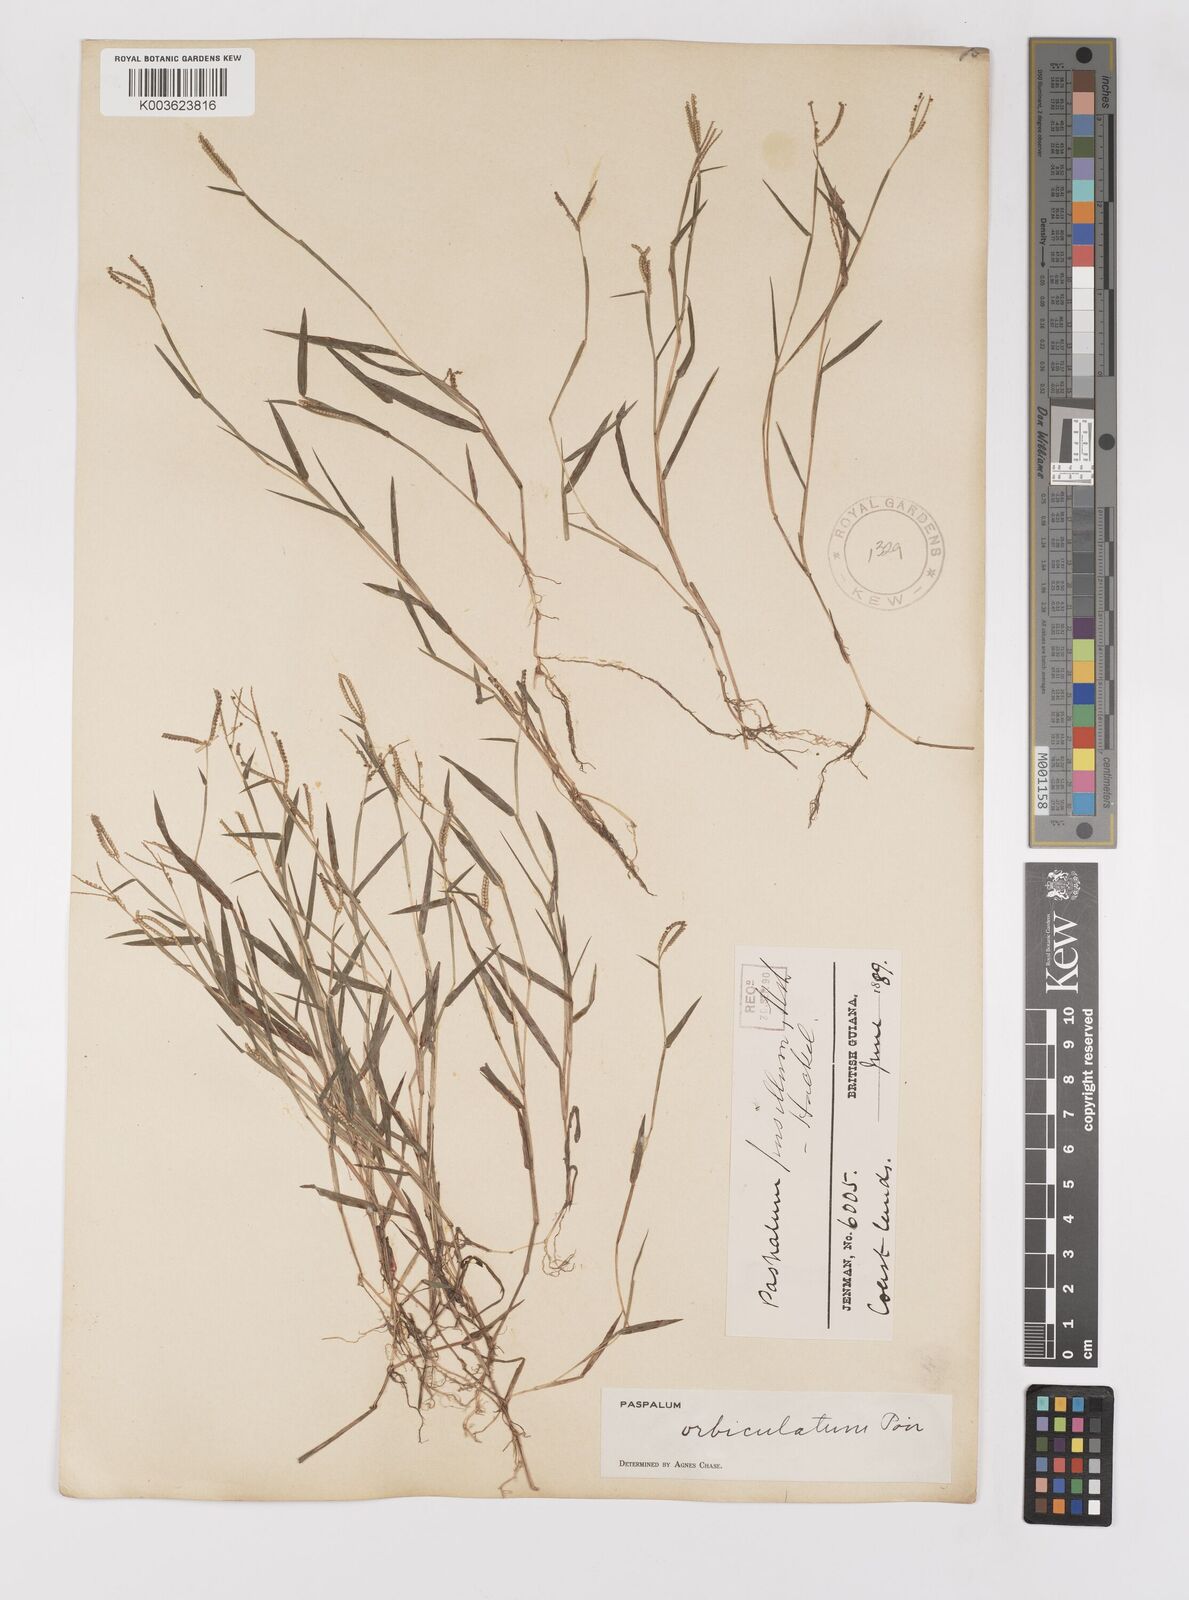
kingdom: Plantae
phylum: Tracheophyta
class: Liliopsida
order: Poales
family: Poaceae
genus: Paspalum
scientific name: Paspalum orbiculatum
